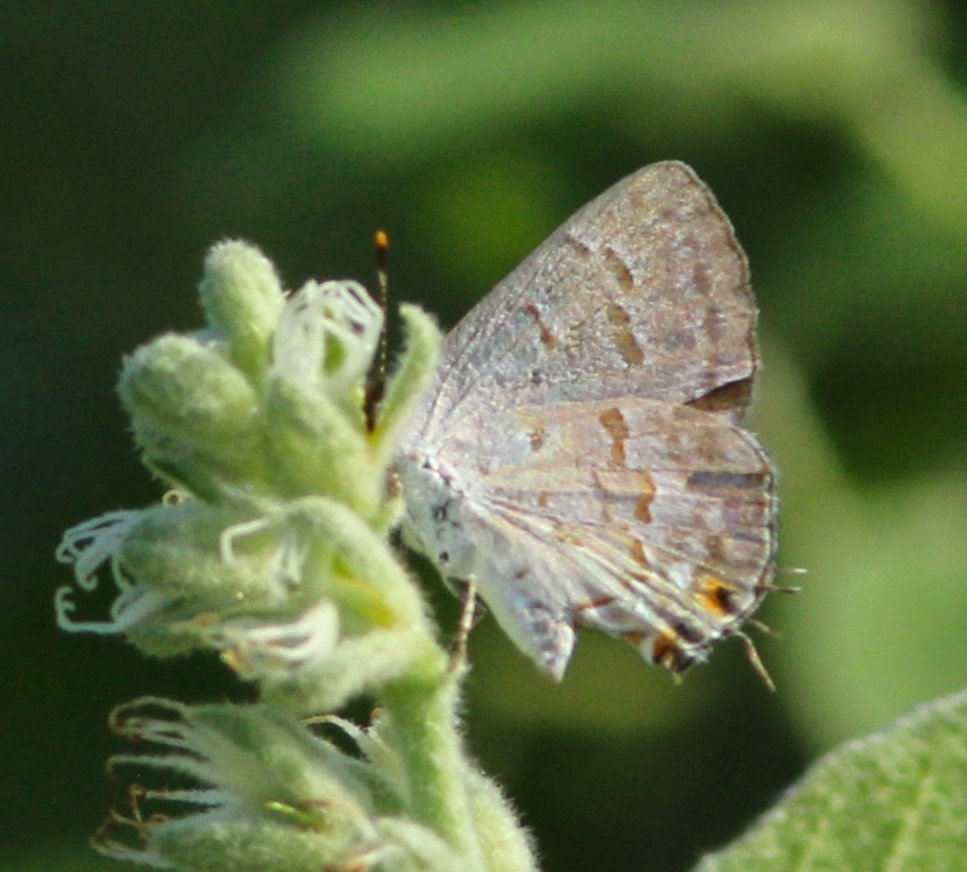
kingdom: Animalia
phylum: Arthropoda
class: Insecta
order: Lepidoptera
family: Lycaenidae
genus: Ministrymon
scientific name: Ministrymon clytie
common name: Clytie Ministreak
